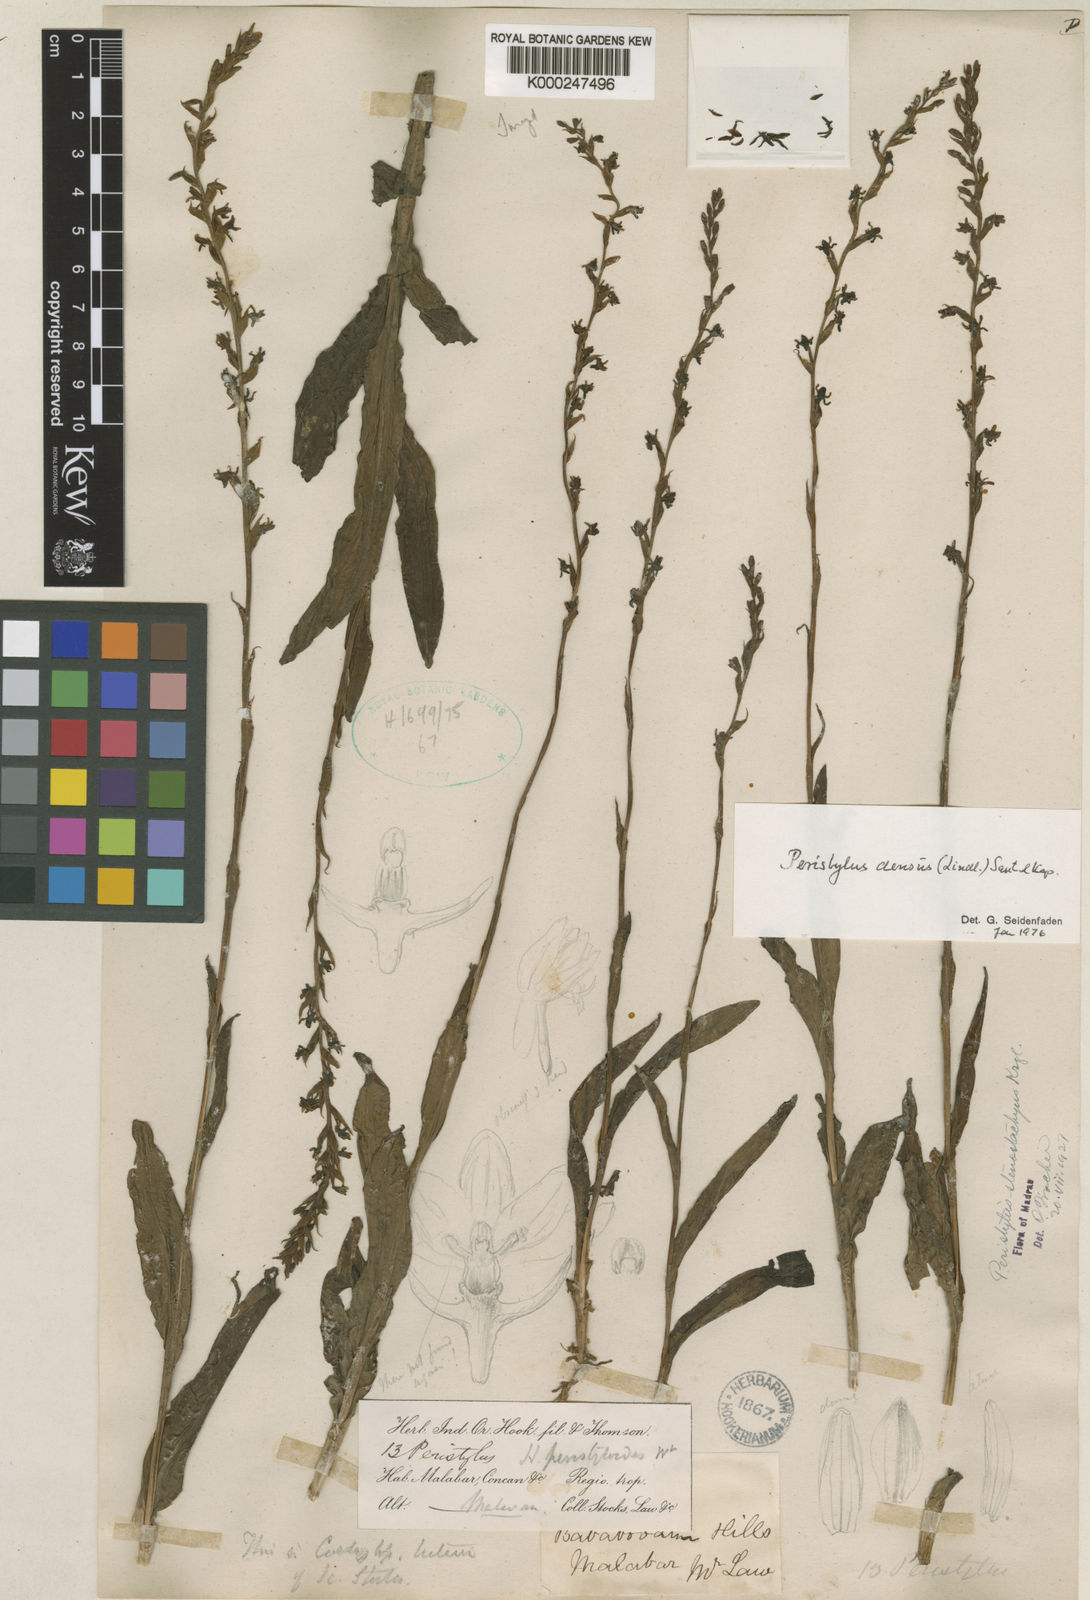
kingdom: Plantae
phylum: Tracheophyta
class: Liliopsida
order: Asparagales
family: Orchidaceae
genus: Peristylus
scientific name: Peristylus densus
